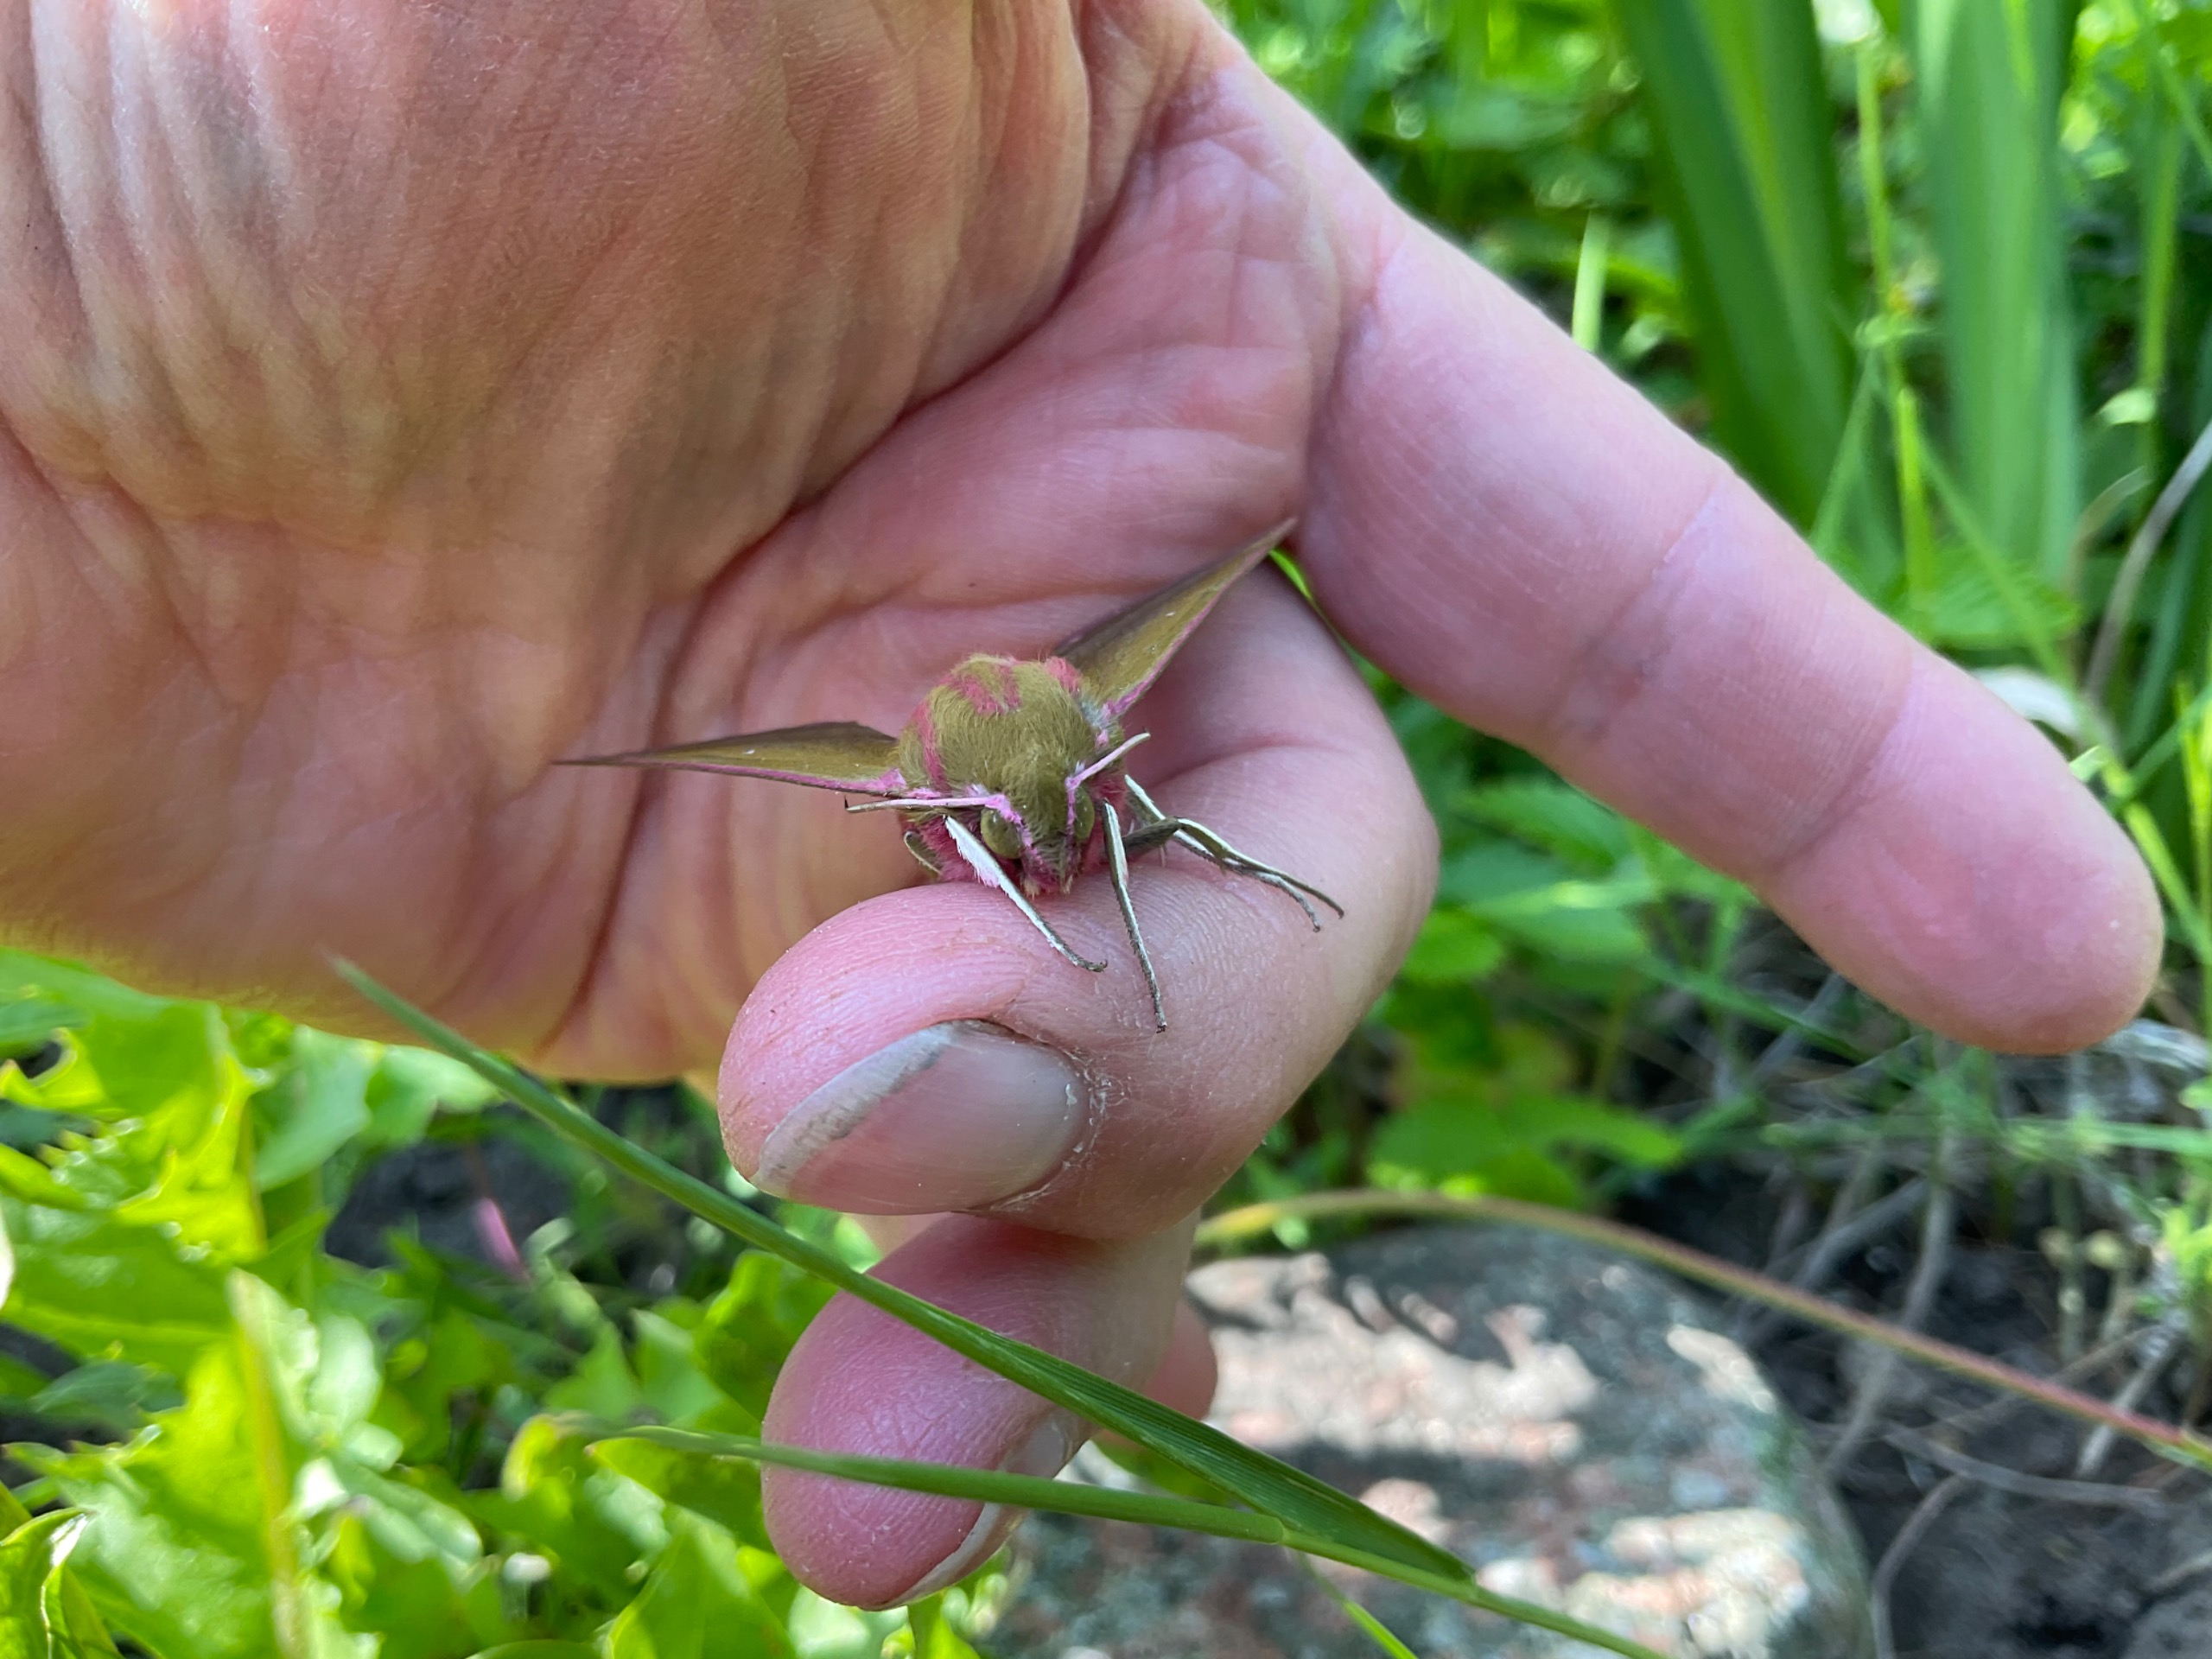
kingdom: Animalia
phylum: Arthropoda
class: Insecta
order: Lepidoptera
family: Sphingidae
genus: Deilephila
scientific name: Deilephila elpenor
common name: Dueurtsværmer
